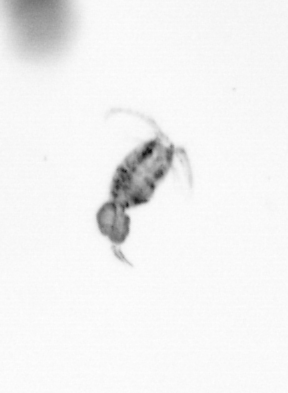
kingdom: Animalia
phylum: Arthropoda
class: Copepoda
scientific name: Copepoda
